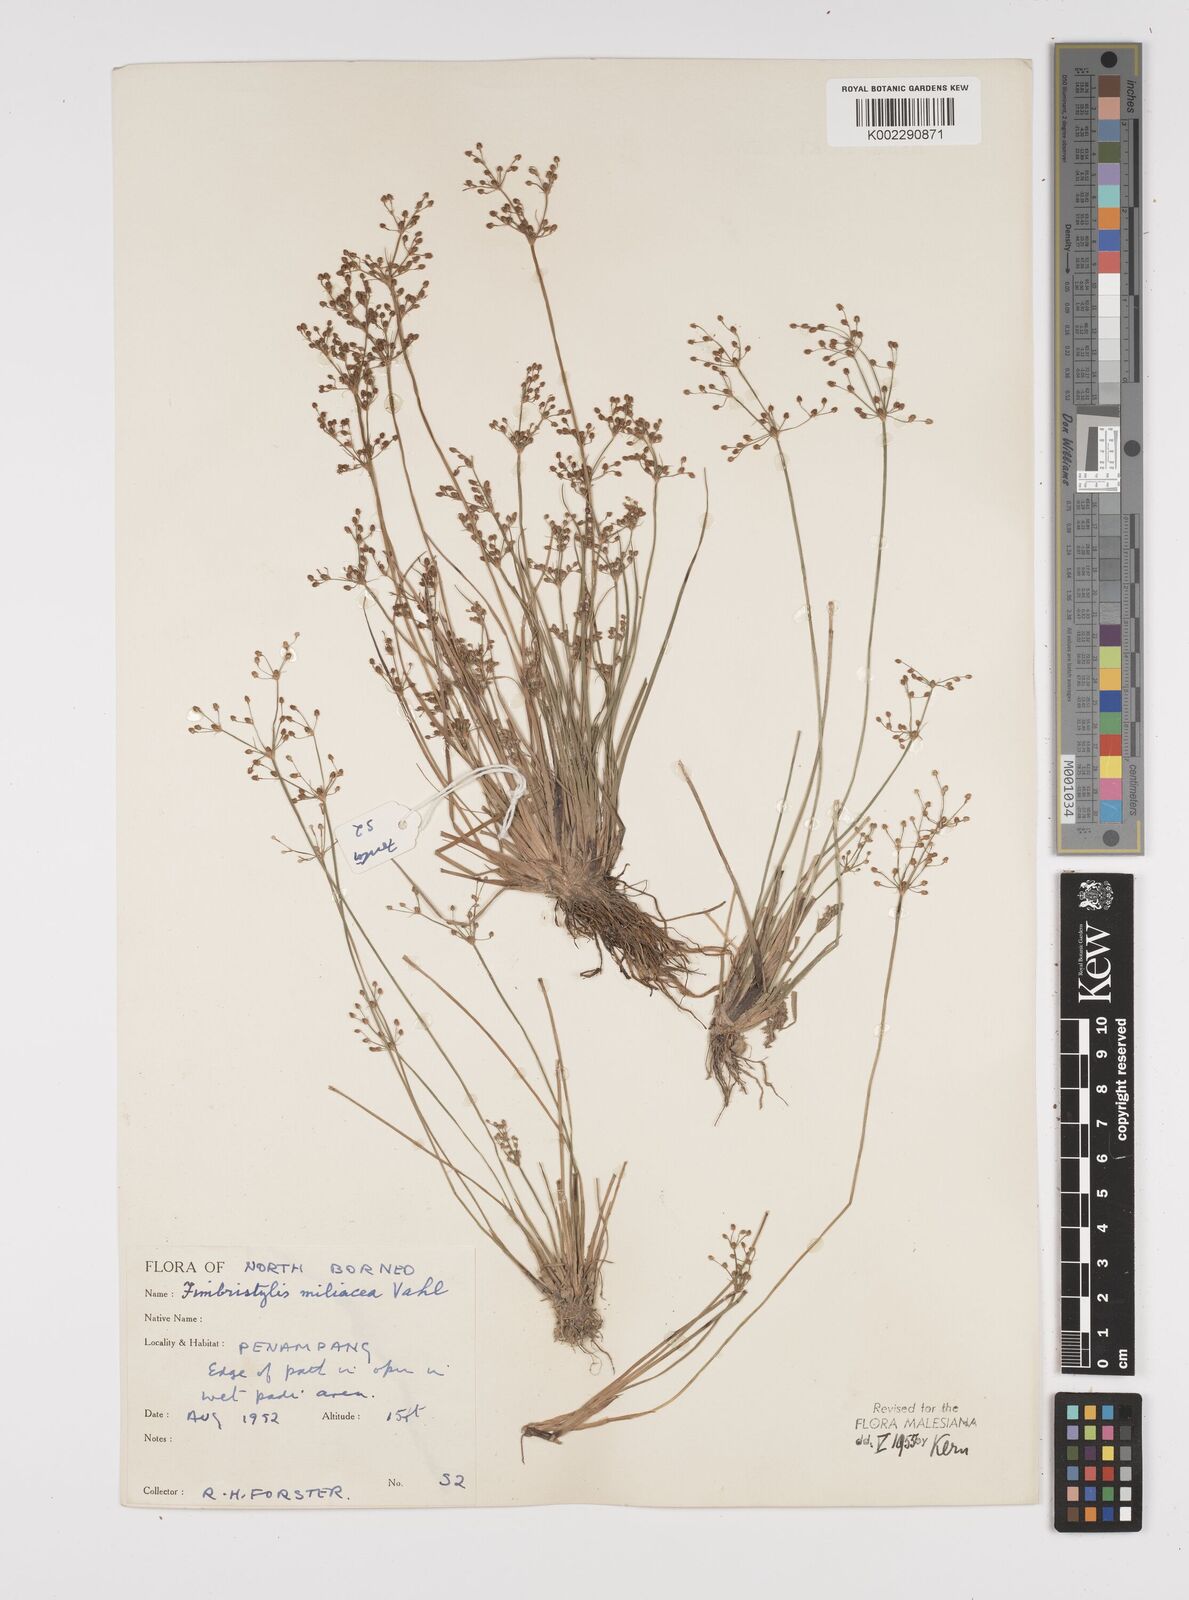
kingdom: Plantae
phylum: Tracheophyta
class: Liliopsida
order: Poales
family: Cyperaceae
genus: Fimbristylis
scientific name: Fimbristylis littoralis
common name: Fimbry
